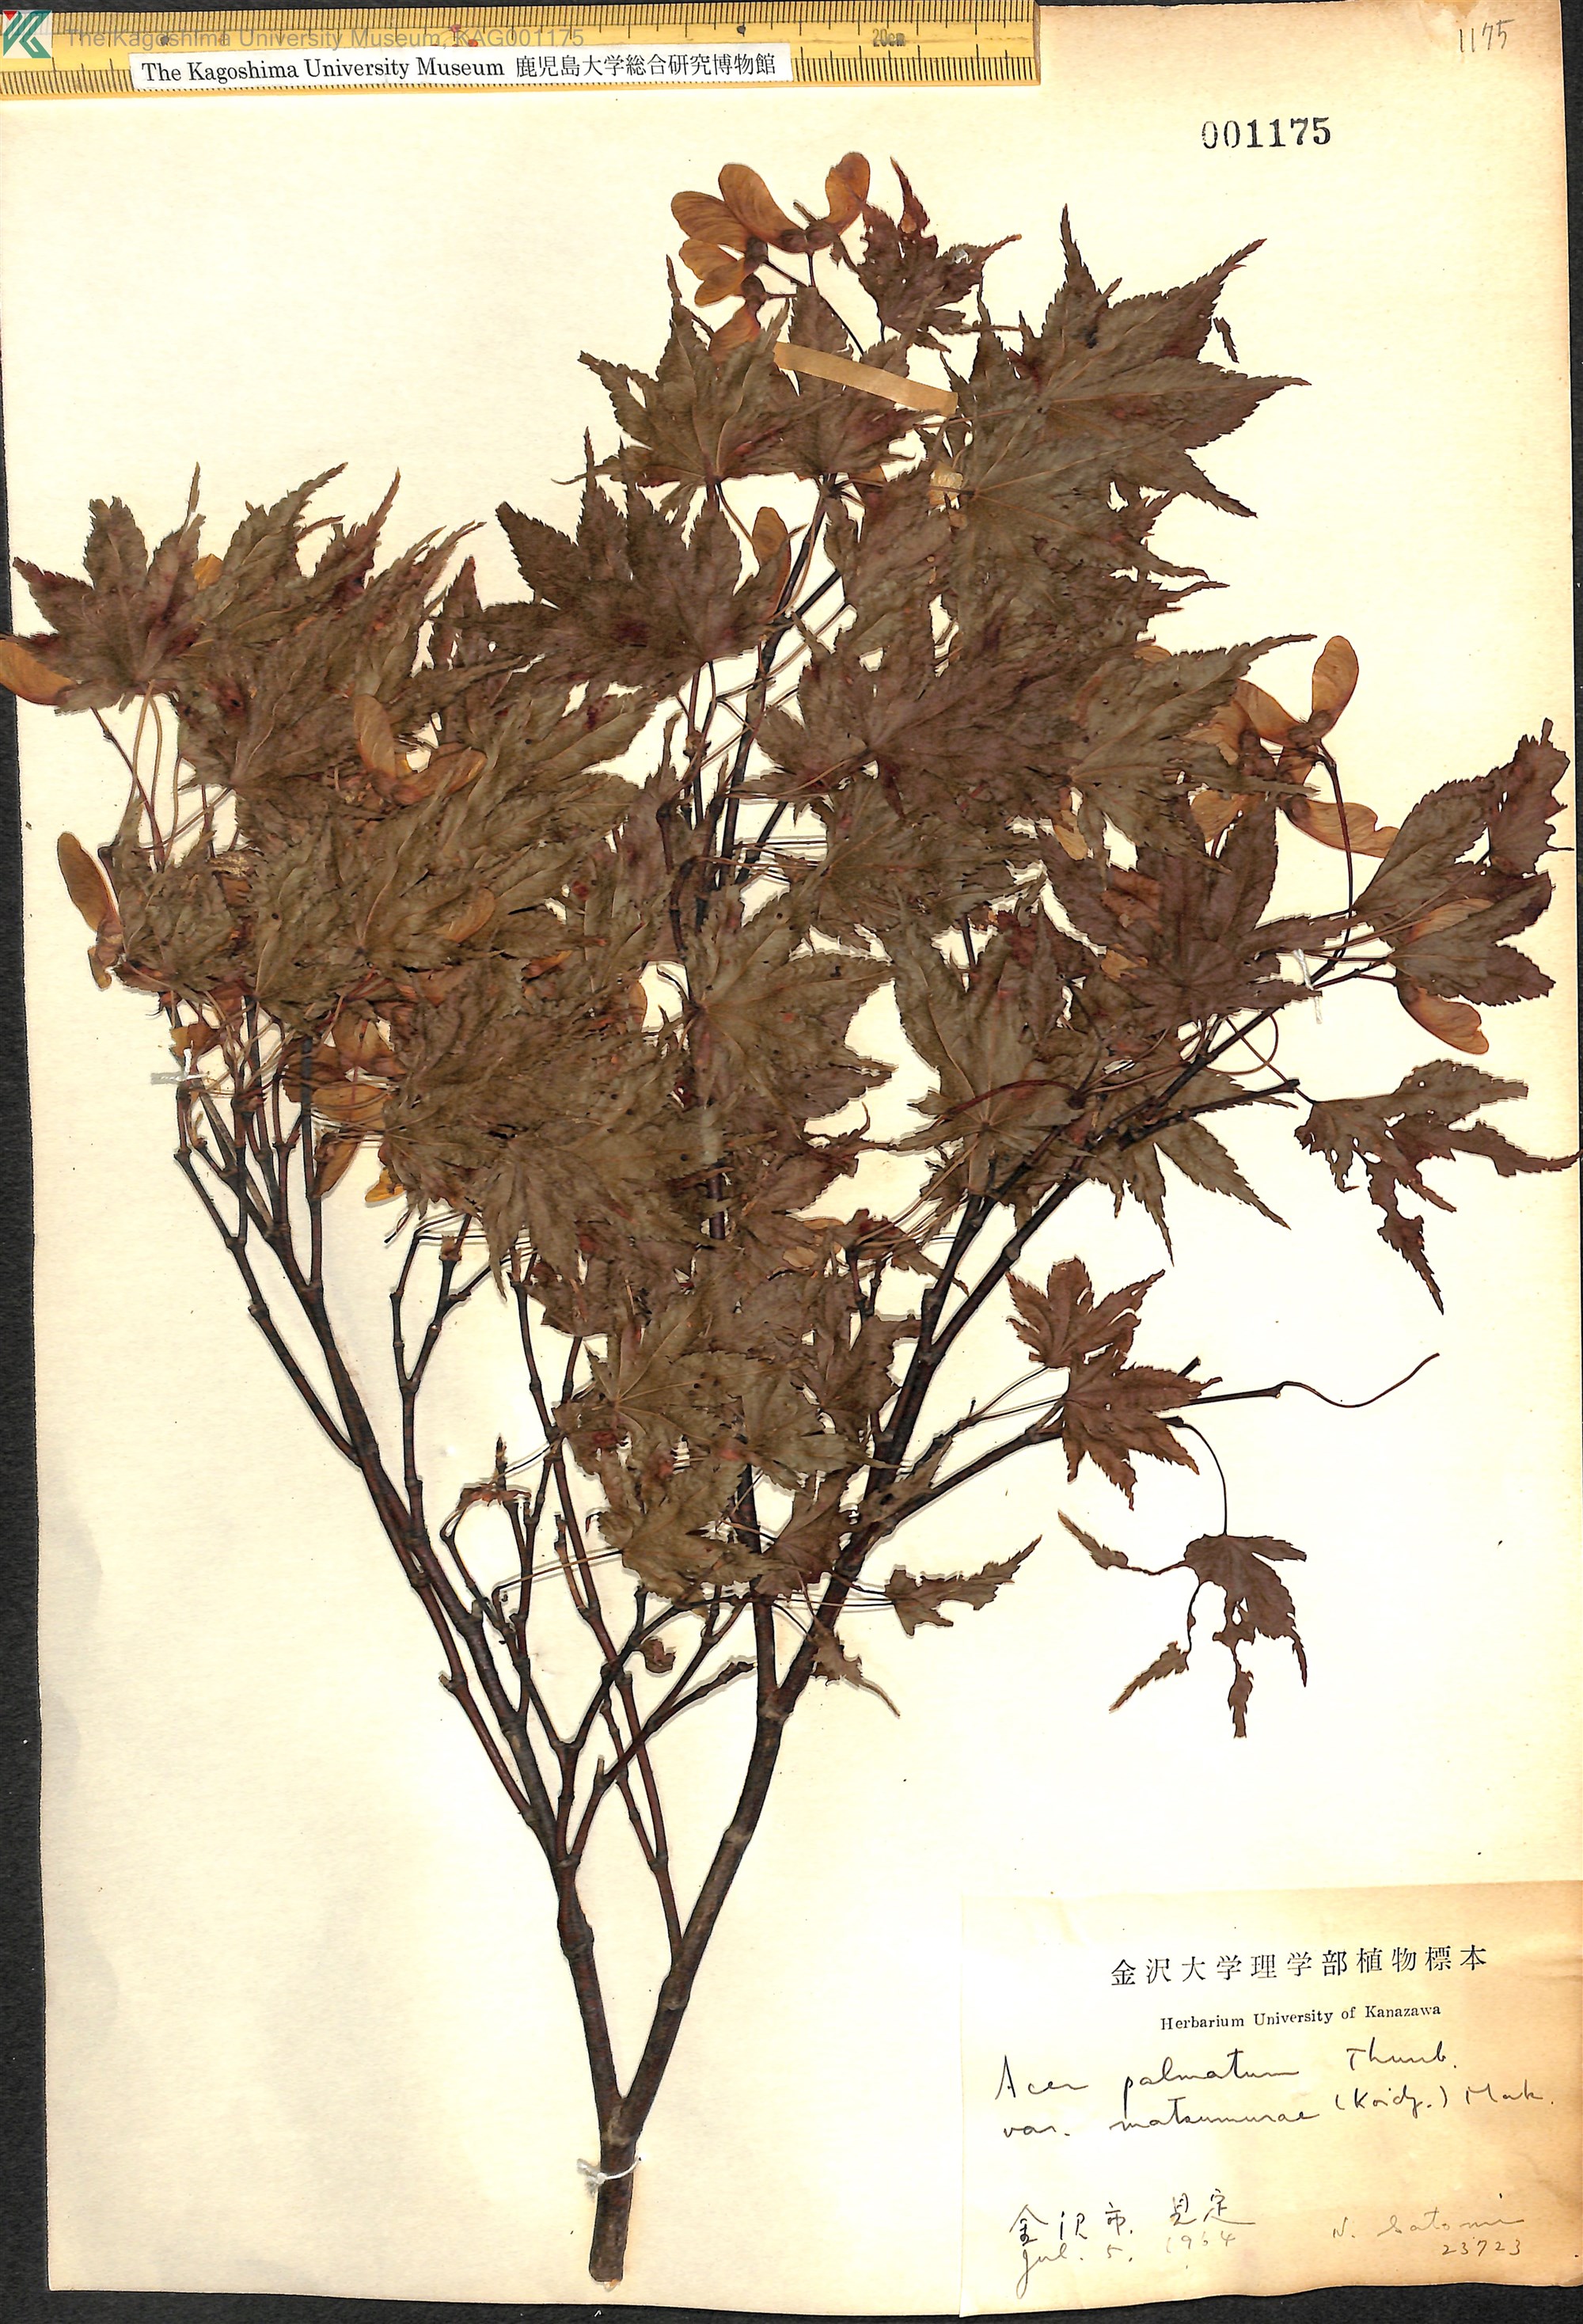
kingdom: Plantae
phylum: Tracheophyta
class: Magnoliopsida
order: Sapindales
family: Sapindaceae
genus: Acer
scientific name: Acer palmatum
